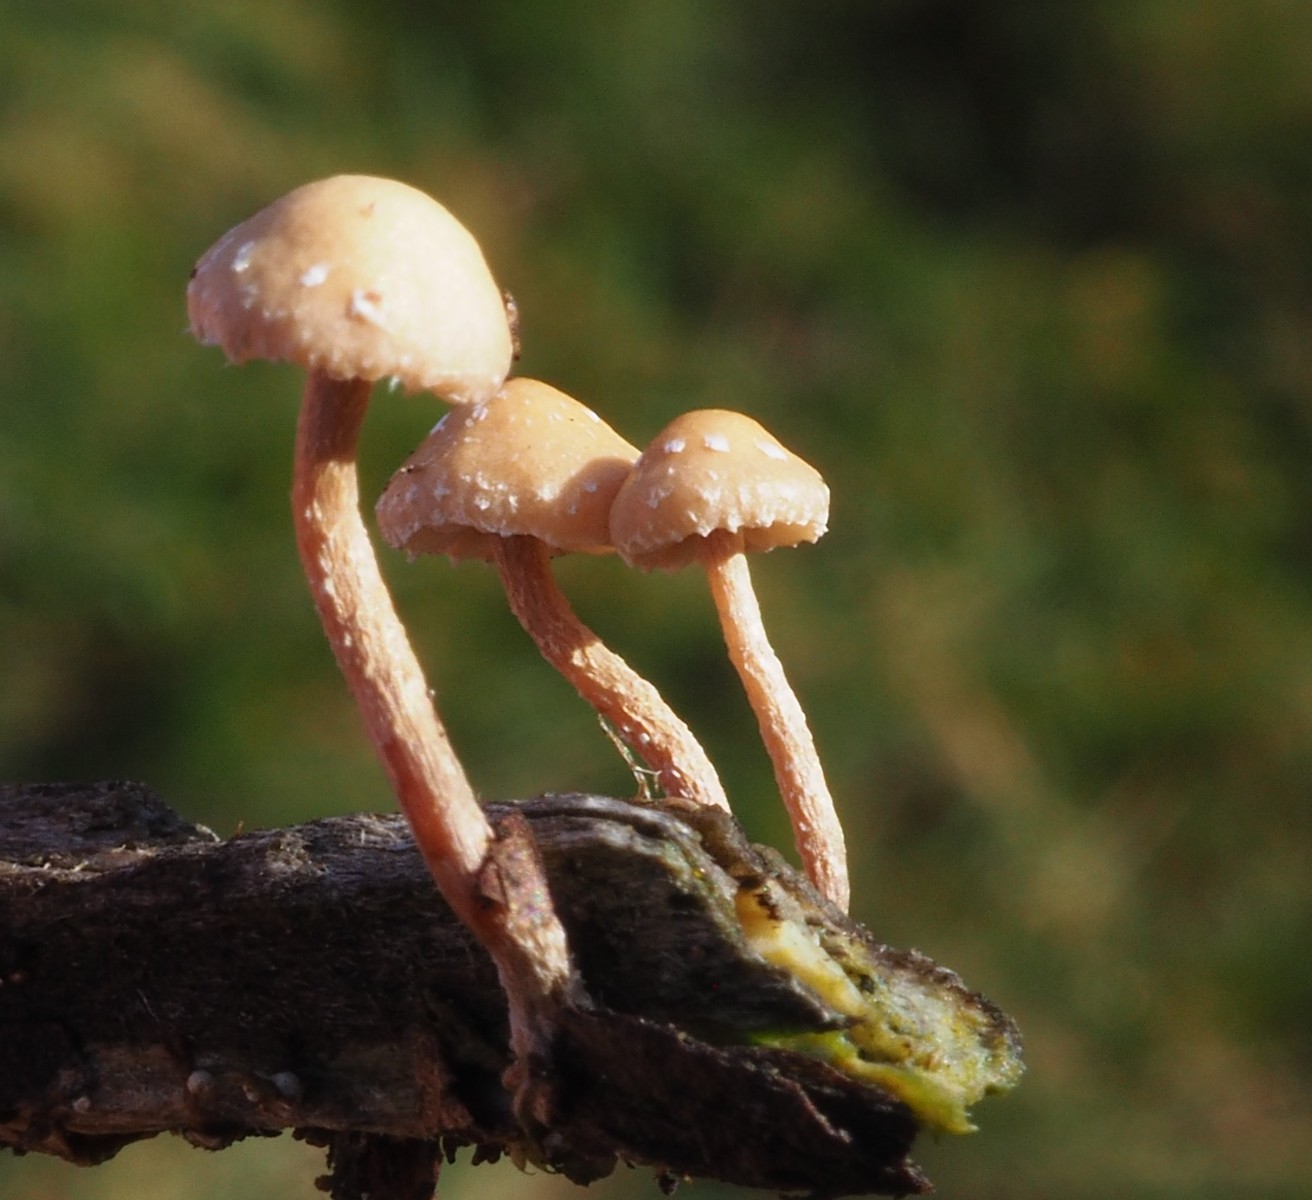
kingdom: Fungi
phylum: Basidiomycota
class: Agaricomycetes
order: Agaricales
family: Strophariaceae
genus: Deconica
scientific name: Deconica crobula
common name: træflis-stråhat
